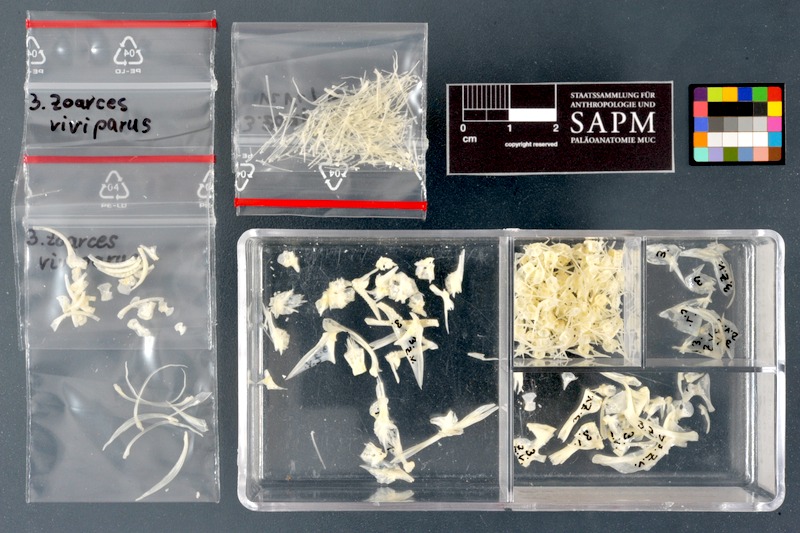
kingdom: Animalia
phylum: Chordata
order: Perciformes
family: Zoarcidae
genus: Zoarces
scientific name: Zoarces viviparus
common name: Viviparous blenny
